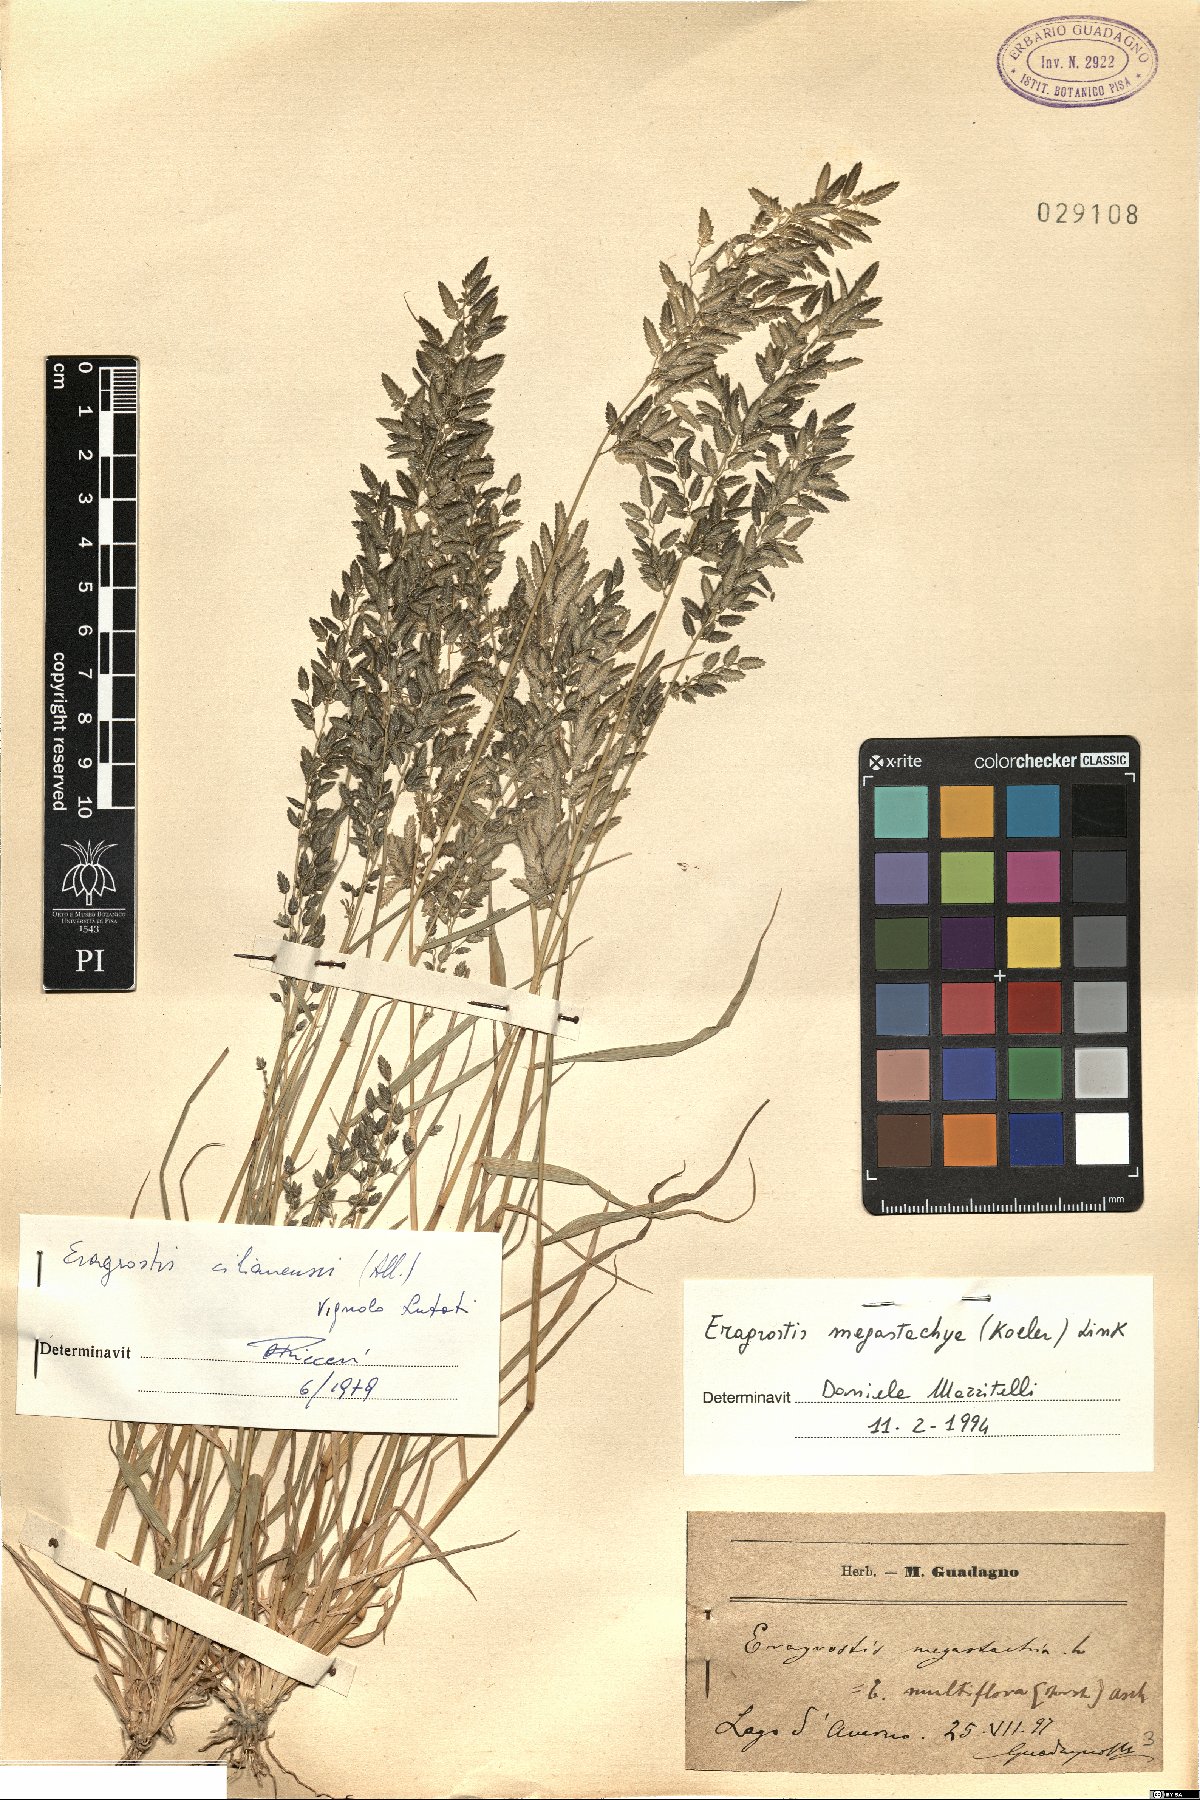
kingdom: Plantae
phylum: Tracheophyta
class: Liliopsida
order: Poales
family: Poaceae
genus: Eragrostis
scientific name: Eragrostis cilianensis
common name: Stinkgrass
